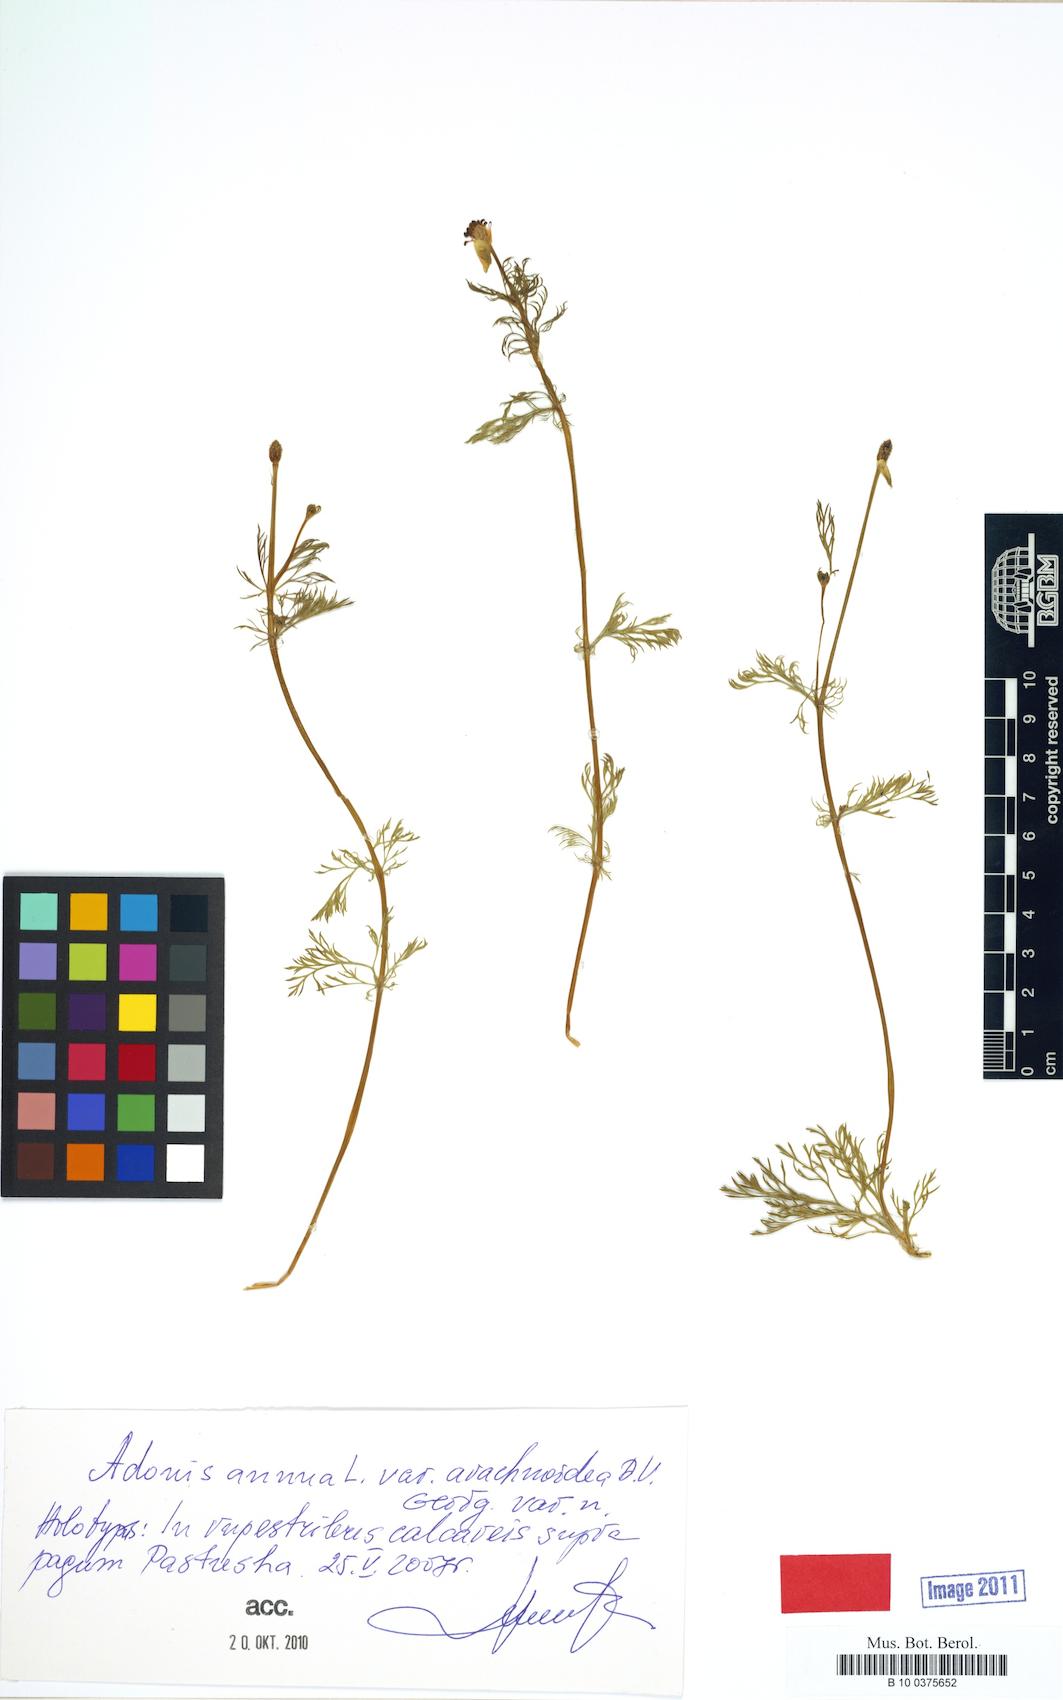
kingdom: Plantae
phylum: Tracheophyta
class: Magnoliopsida
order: Ranunculales
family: Ranunculaceae
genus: Adonis
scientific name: Adonis annua
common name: Pheasant's-eye
